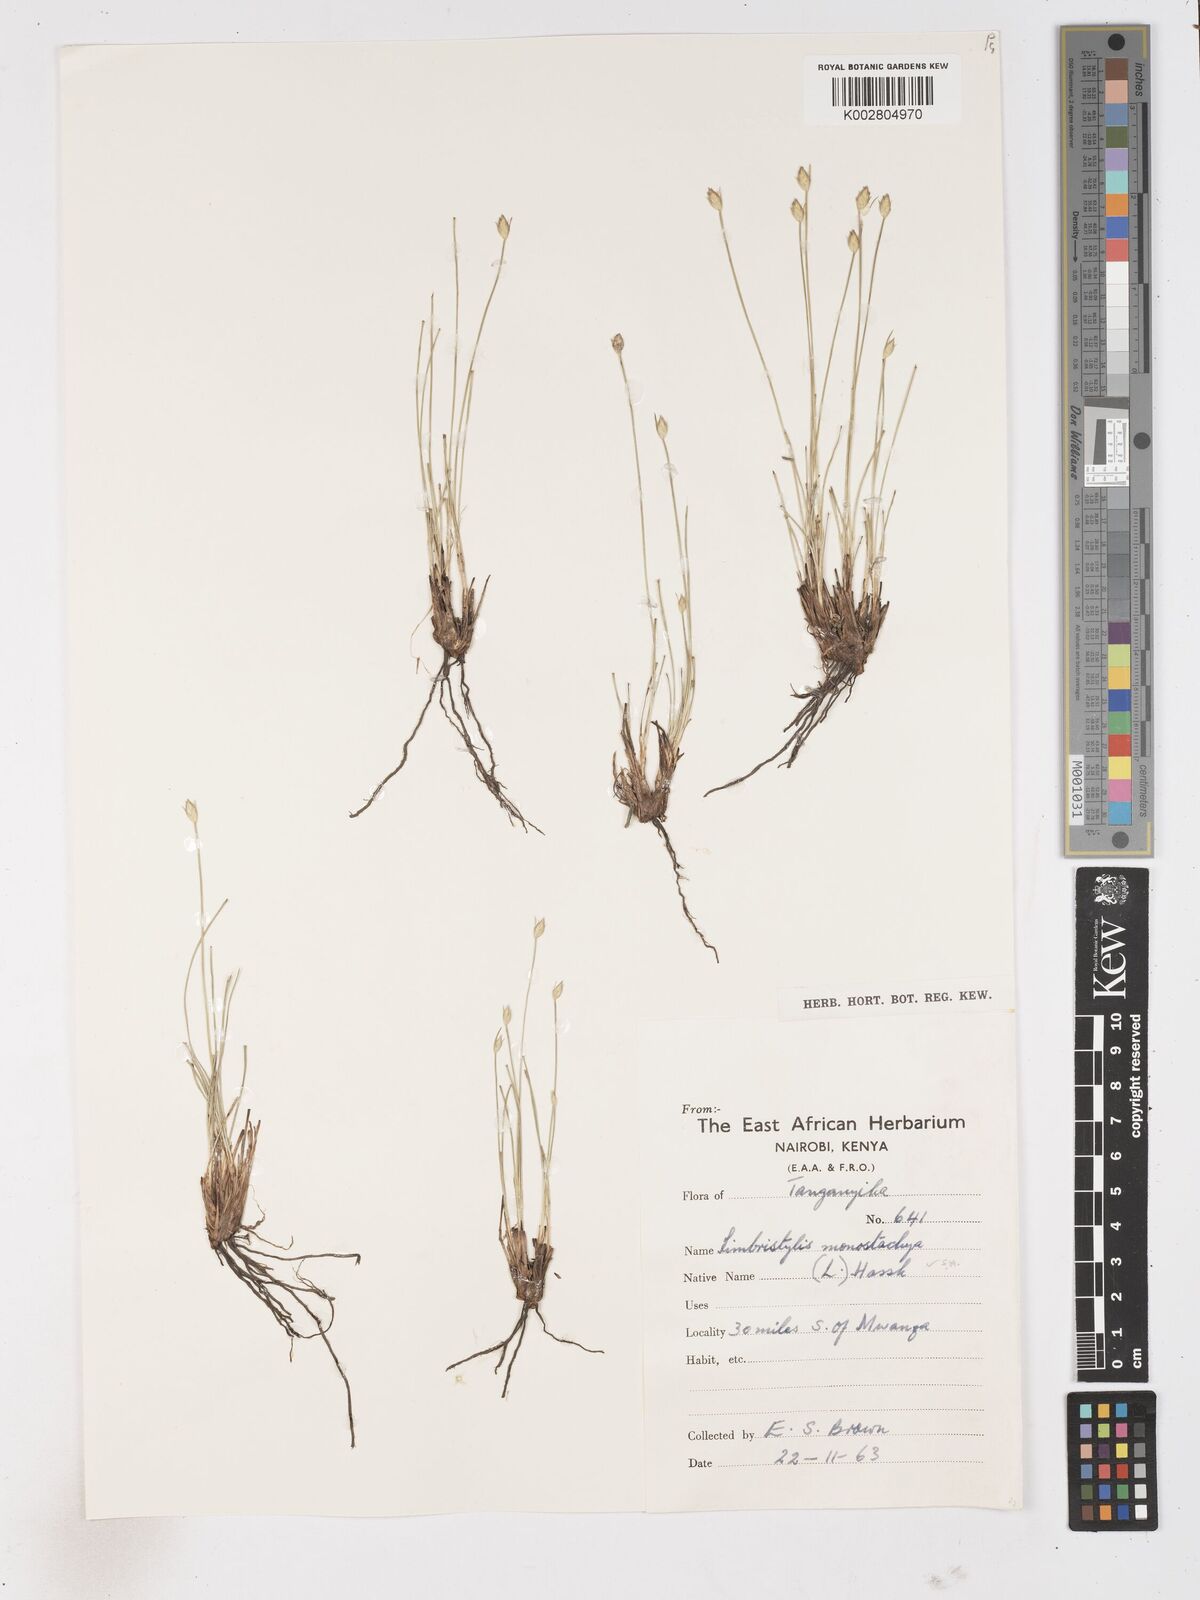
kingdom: Plantae
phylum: Tracheophyta
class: Liliopsida
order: Poales
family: Cyperaceae
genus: Abildgaardia
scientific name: Abildgaardia ovata
